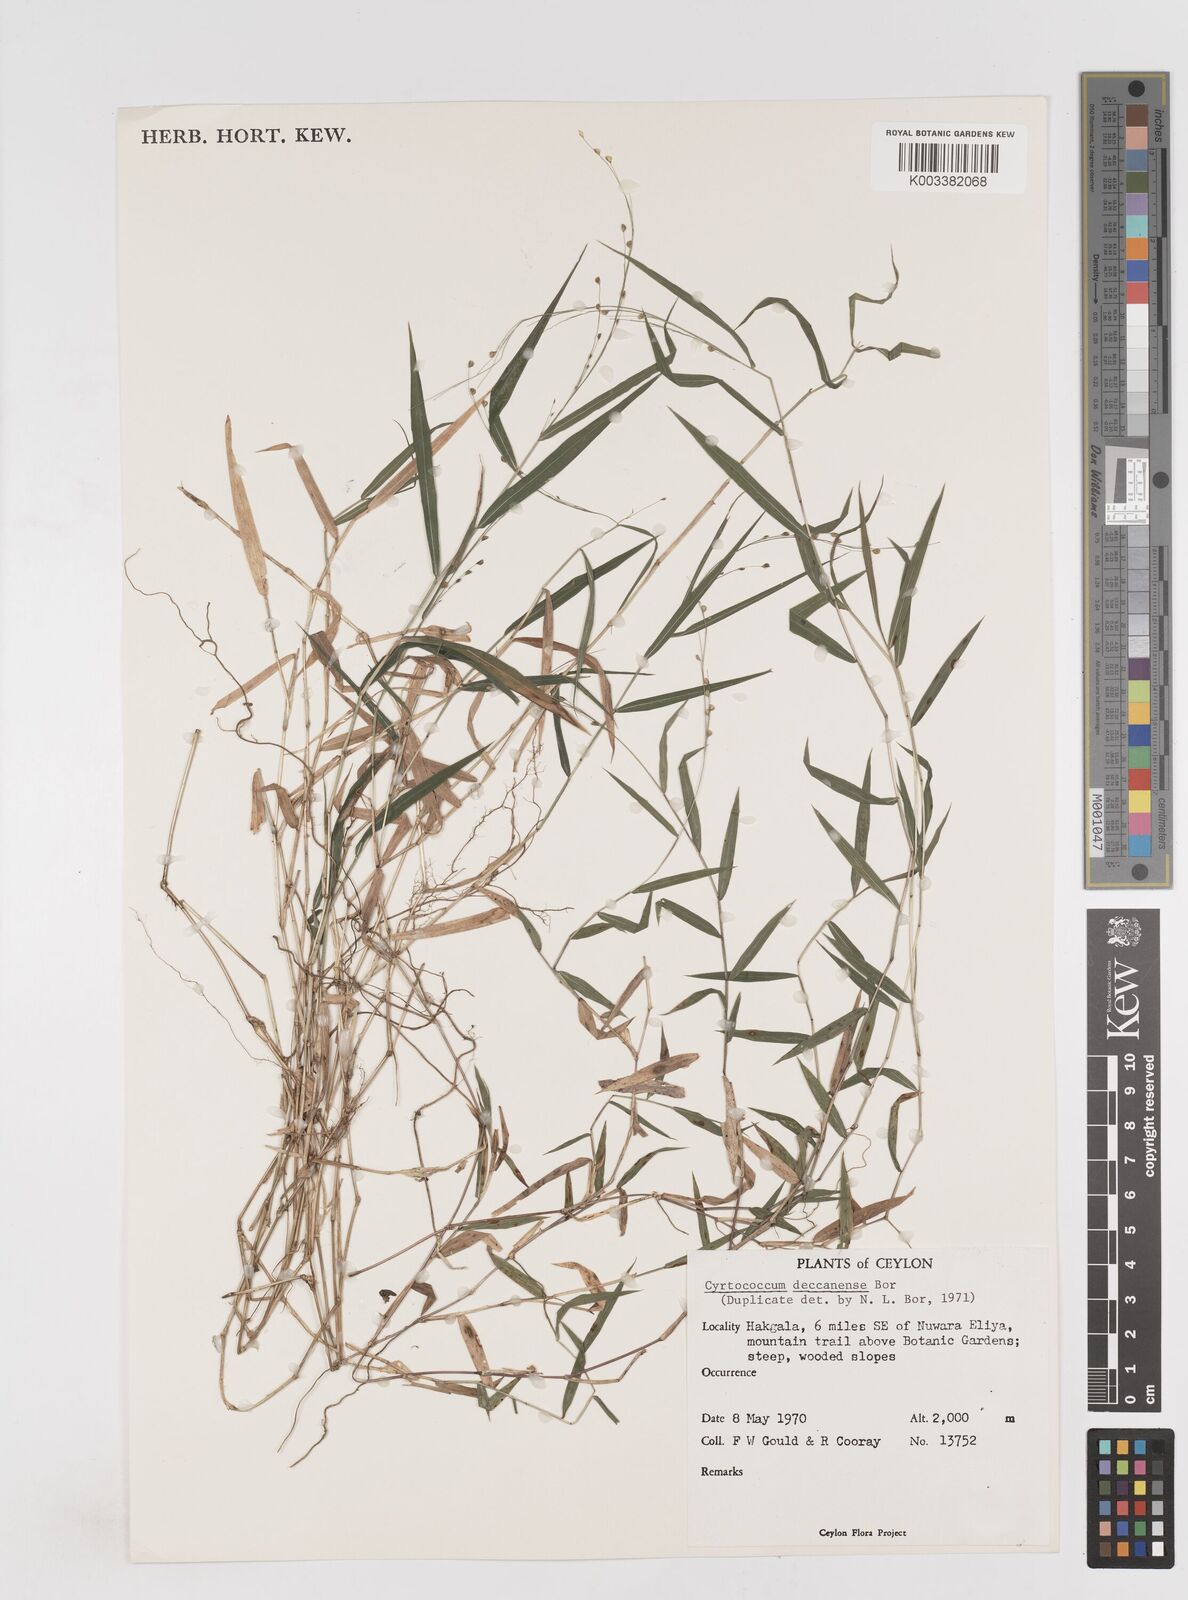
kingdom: Plantae
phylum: Tracheophyta
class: Liliopsida
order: Poales
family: Poaceae
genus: Cyrtococcum
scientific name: Cyrtococcum deccanense
